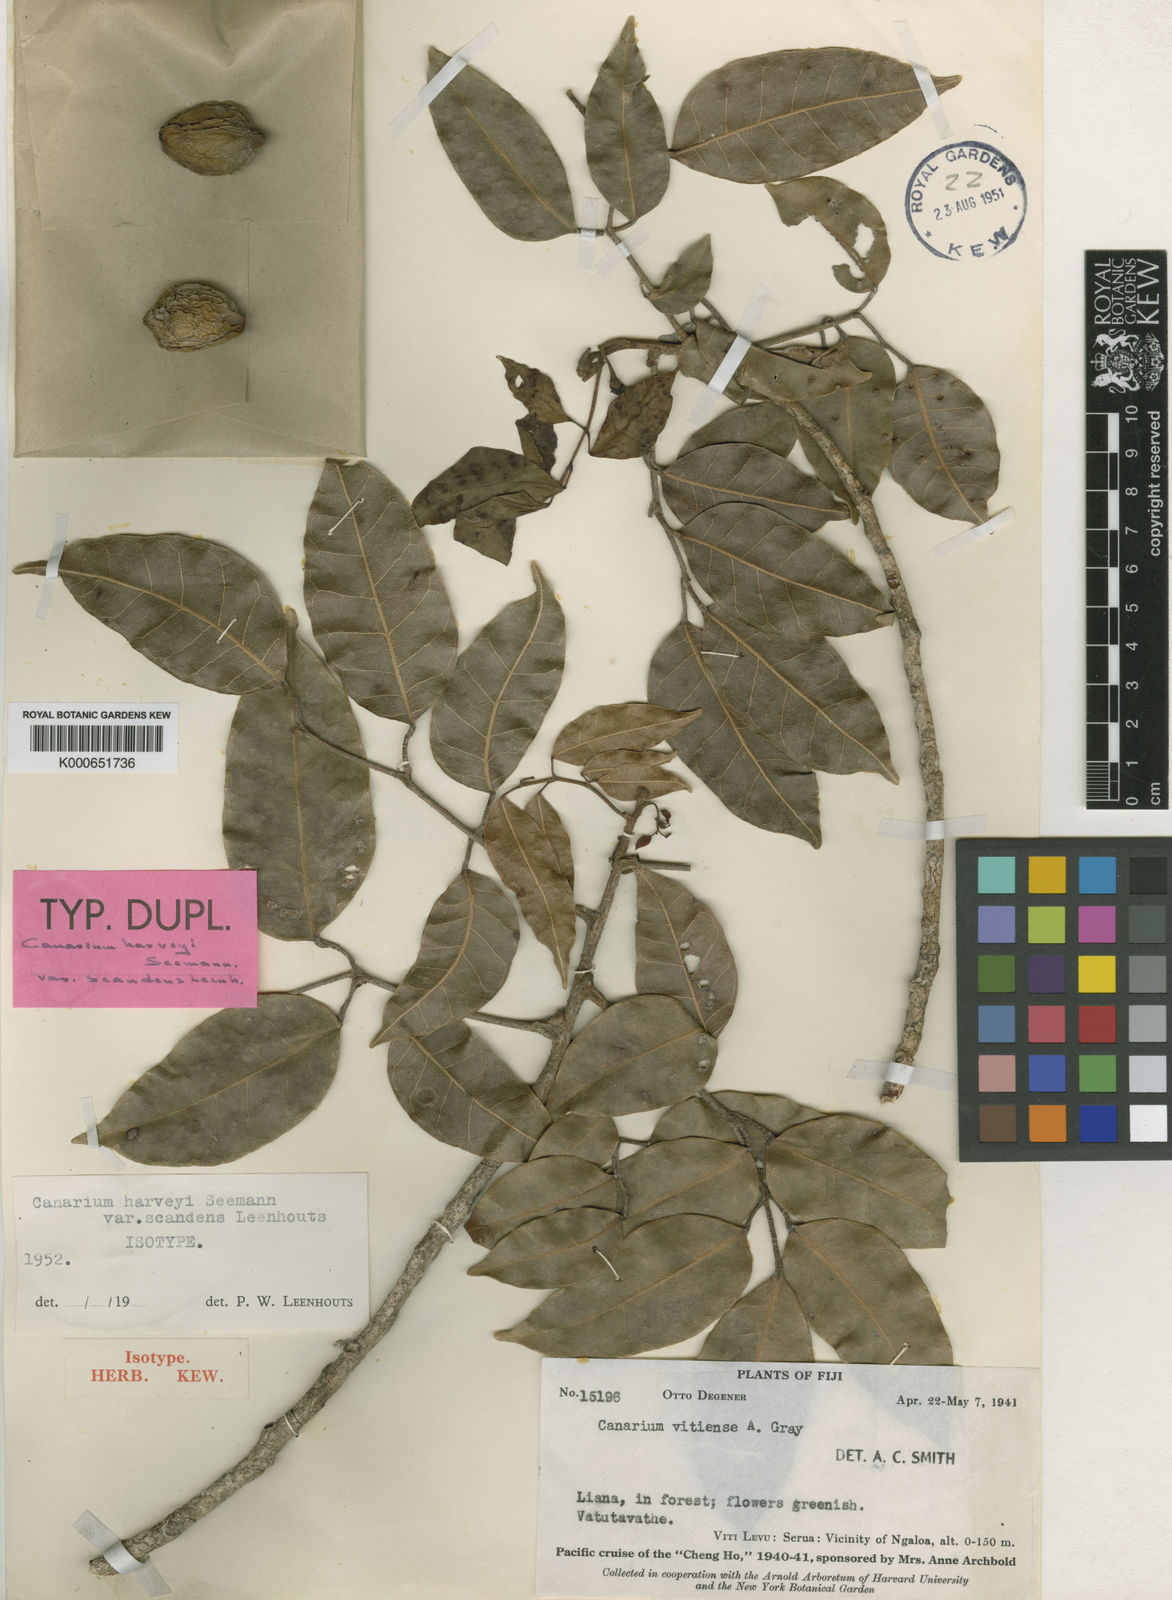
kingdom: Plantae
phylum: Tracheophyta
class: Magnoliopsida
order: Sapindales
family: Burseraceae
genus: Canarium
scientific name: Canarium harveyi
